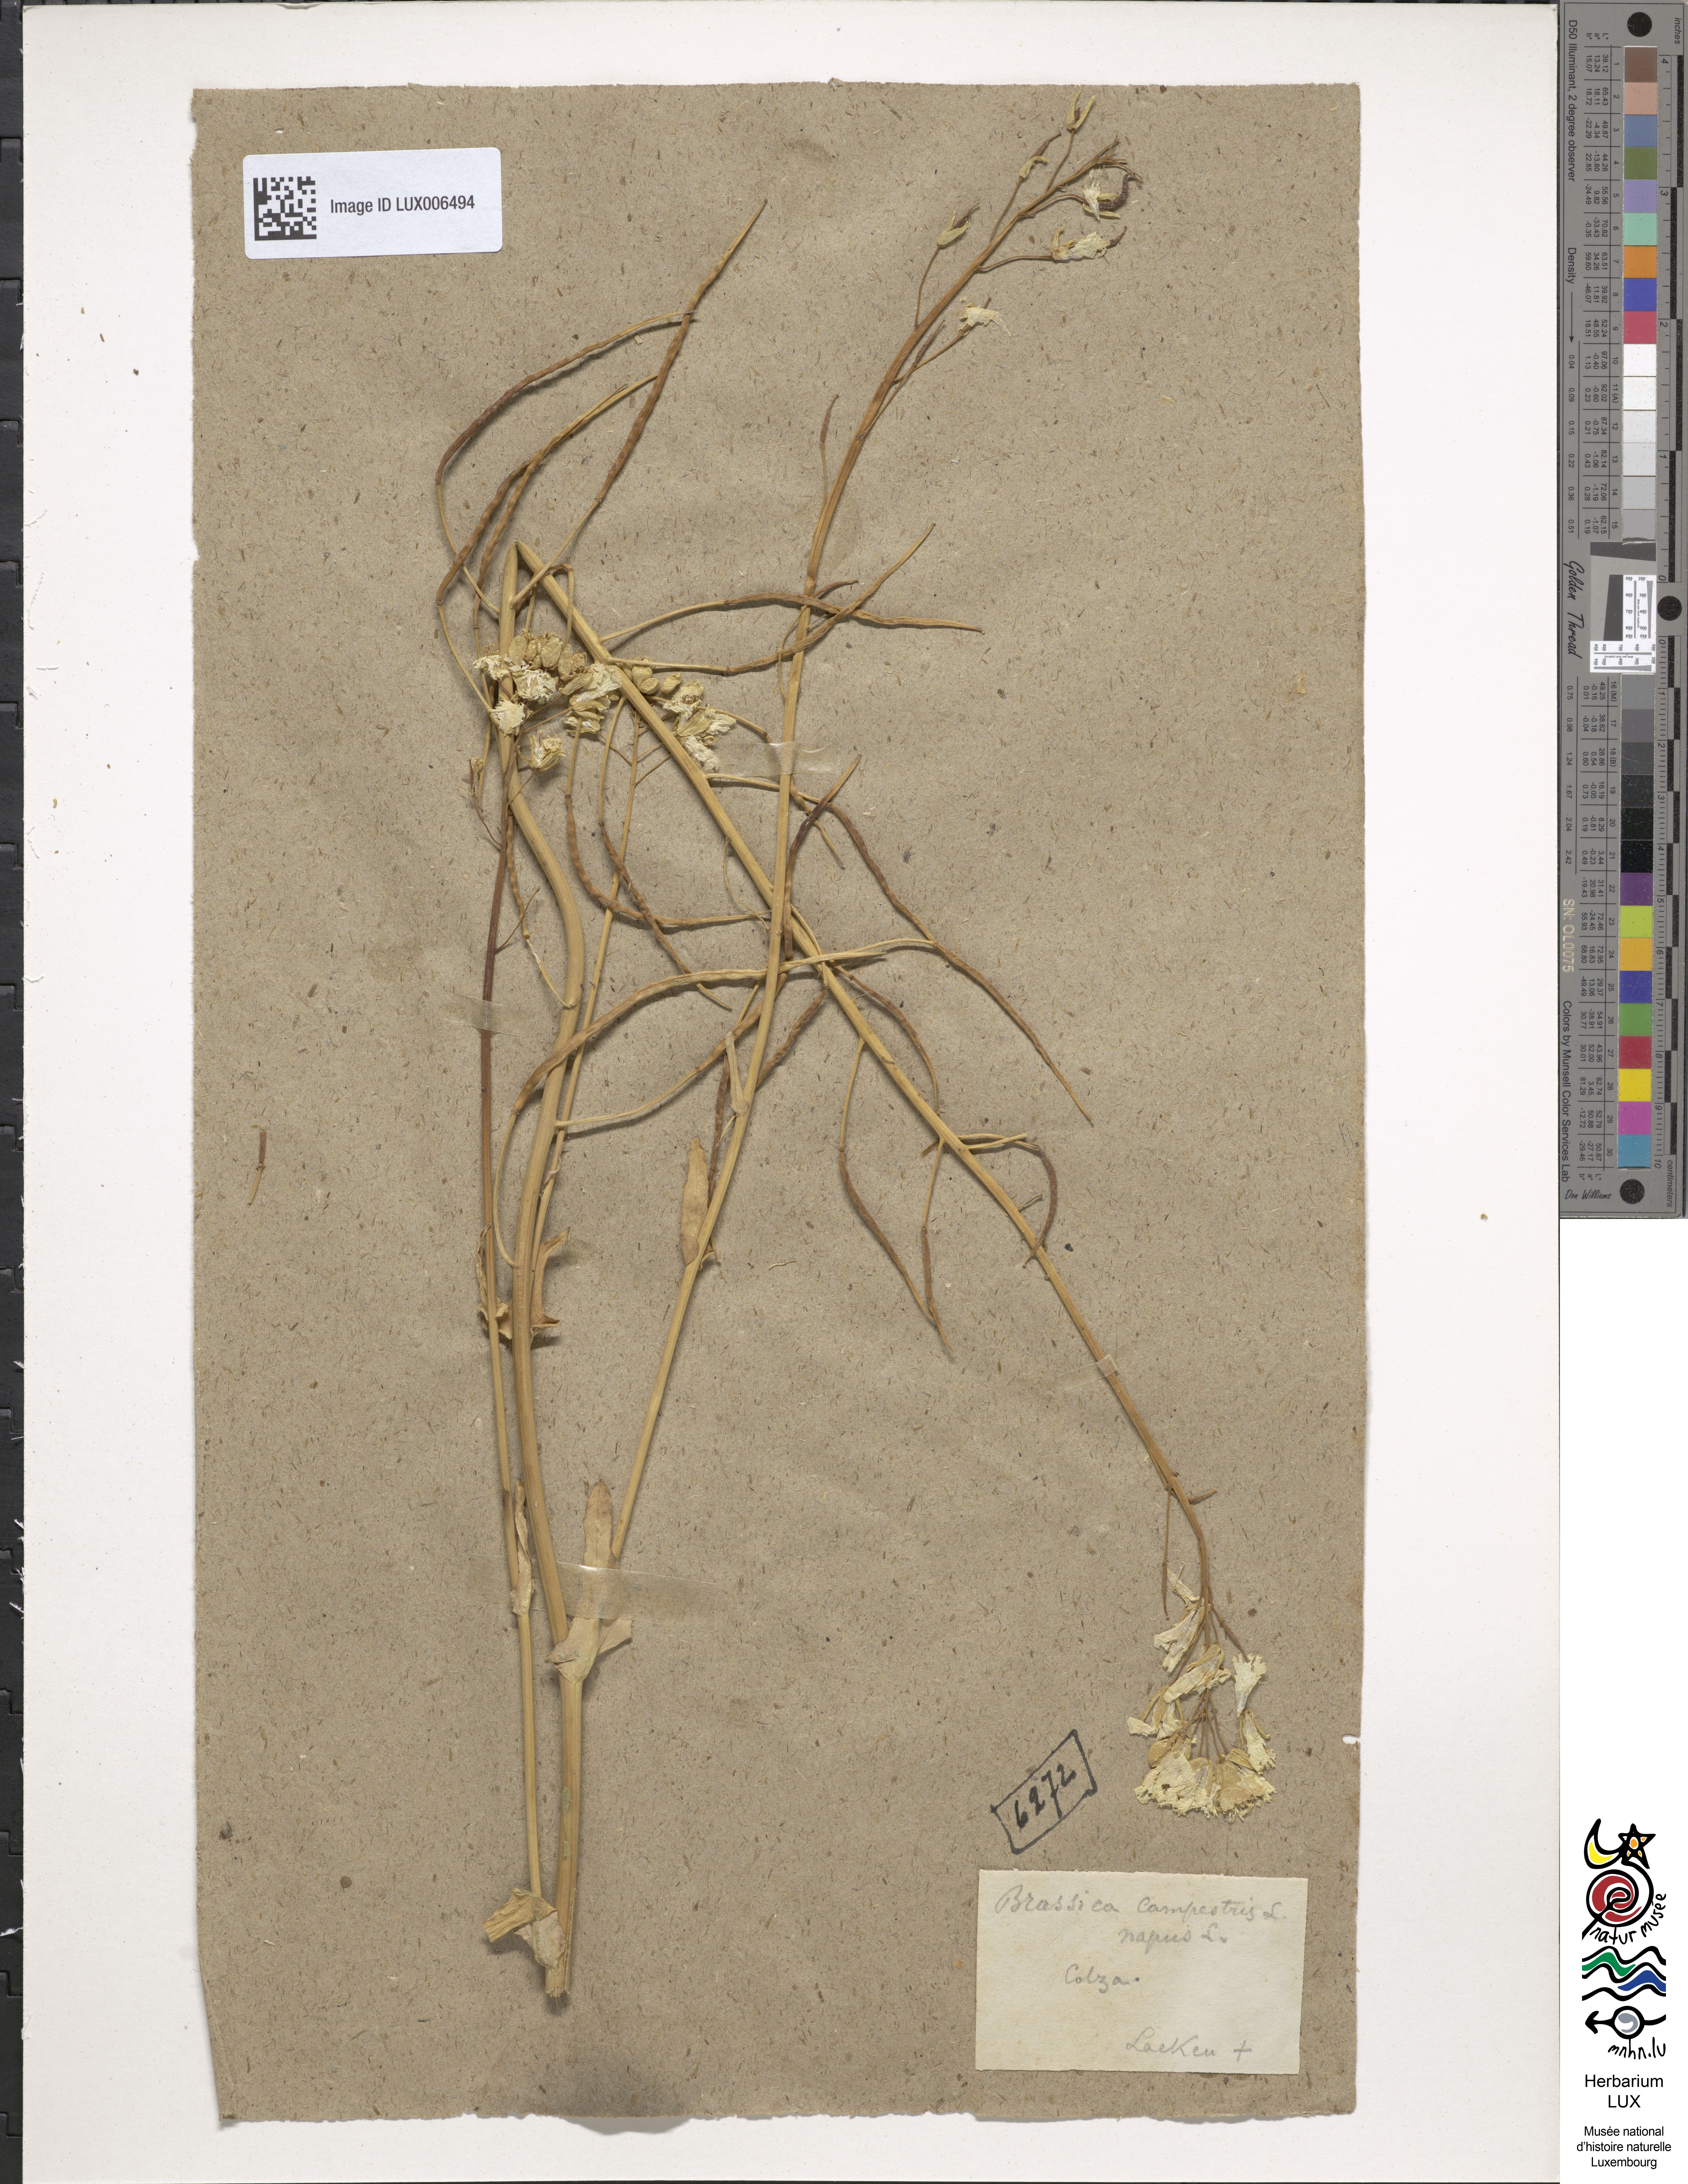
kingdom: Plantae
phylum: Tracheophyta
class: Magnoliopsida
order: Brassicales
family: Brassicaceae
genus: Brassica
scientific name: Brassica napus
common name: Rape
